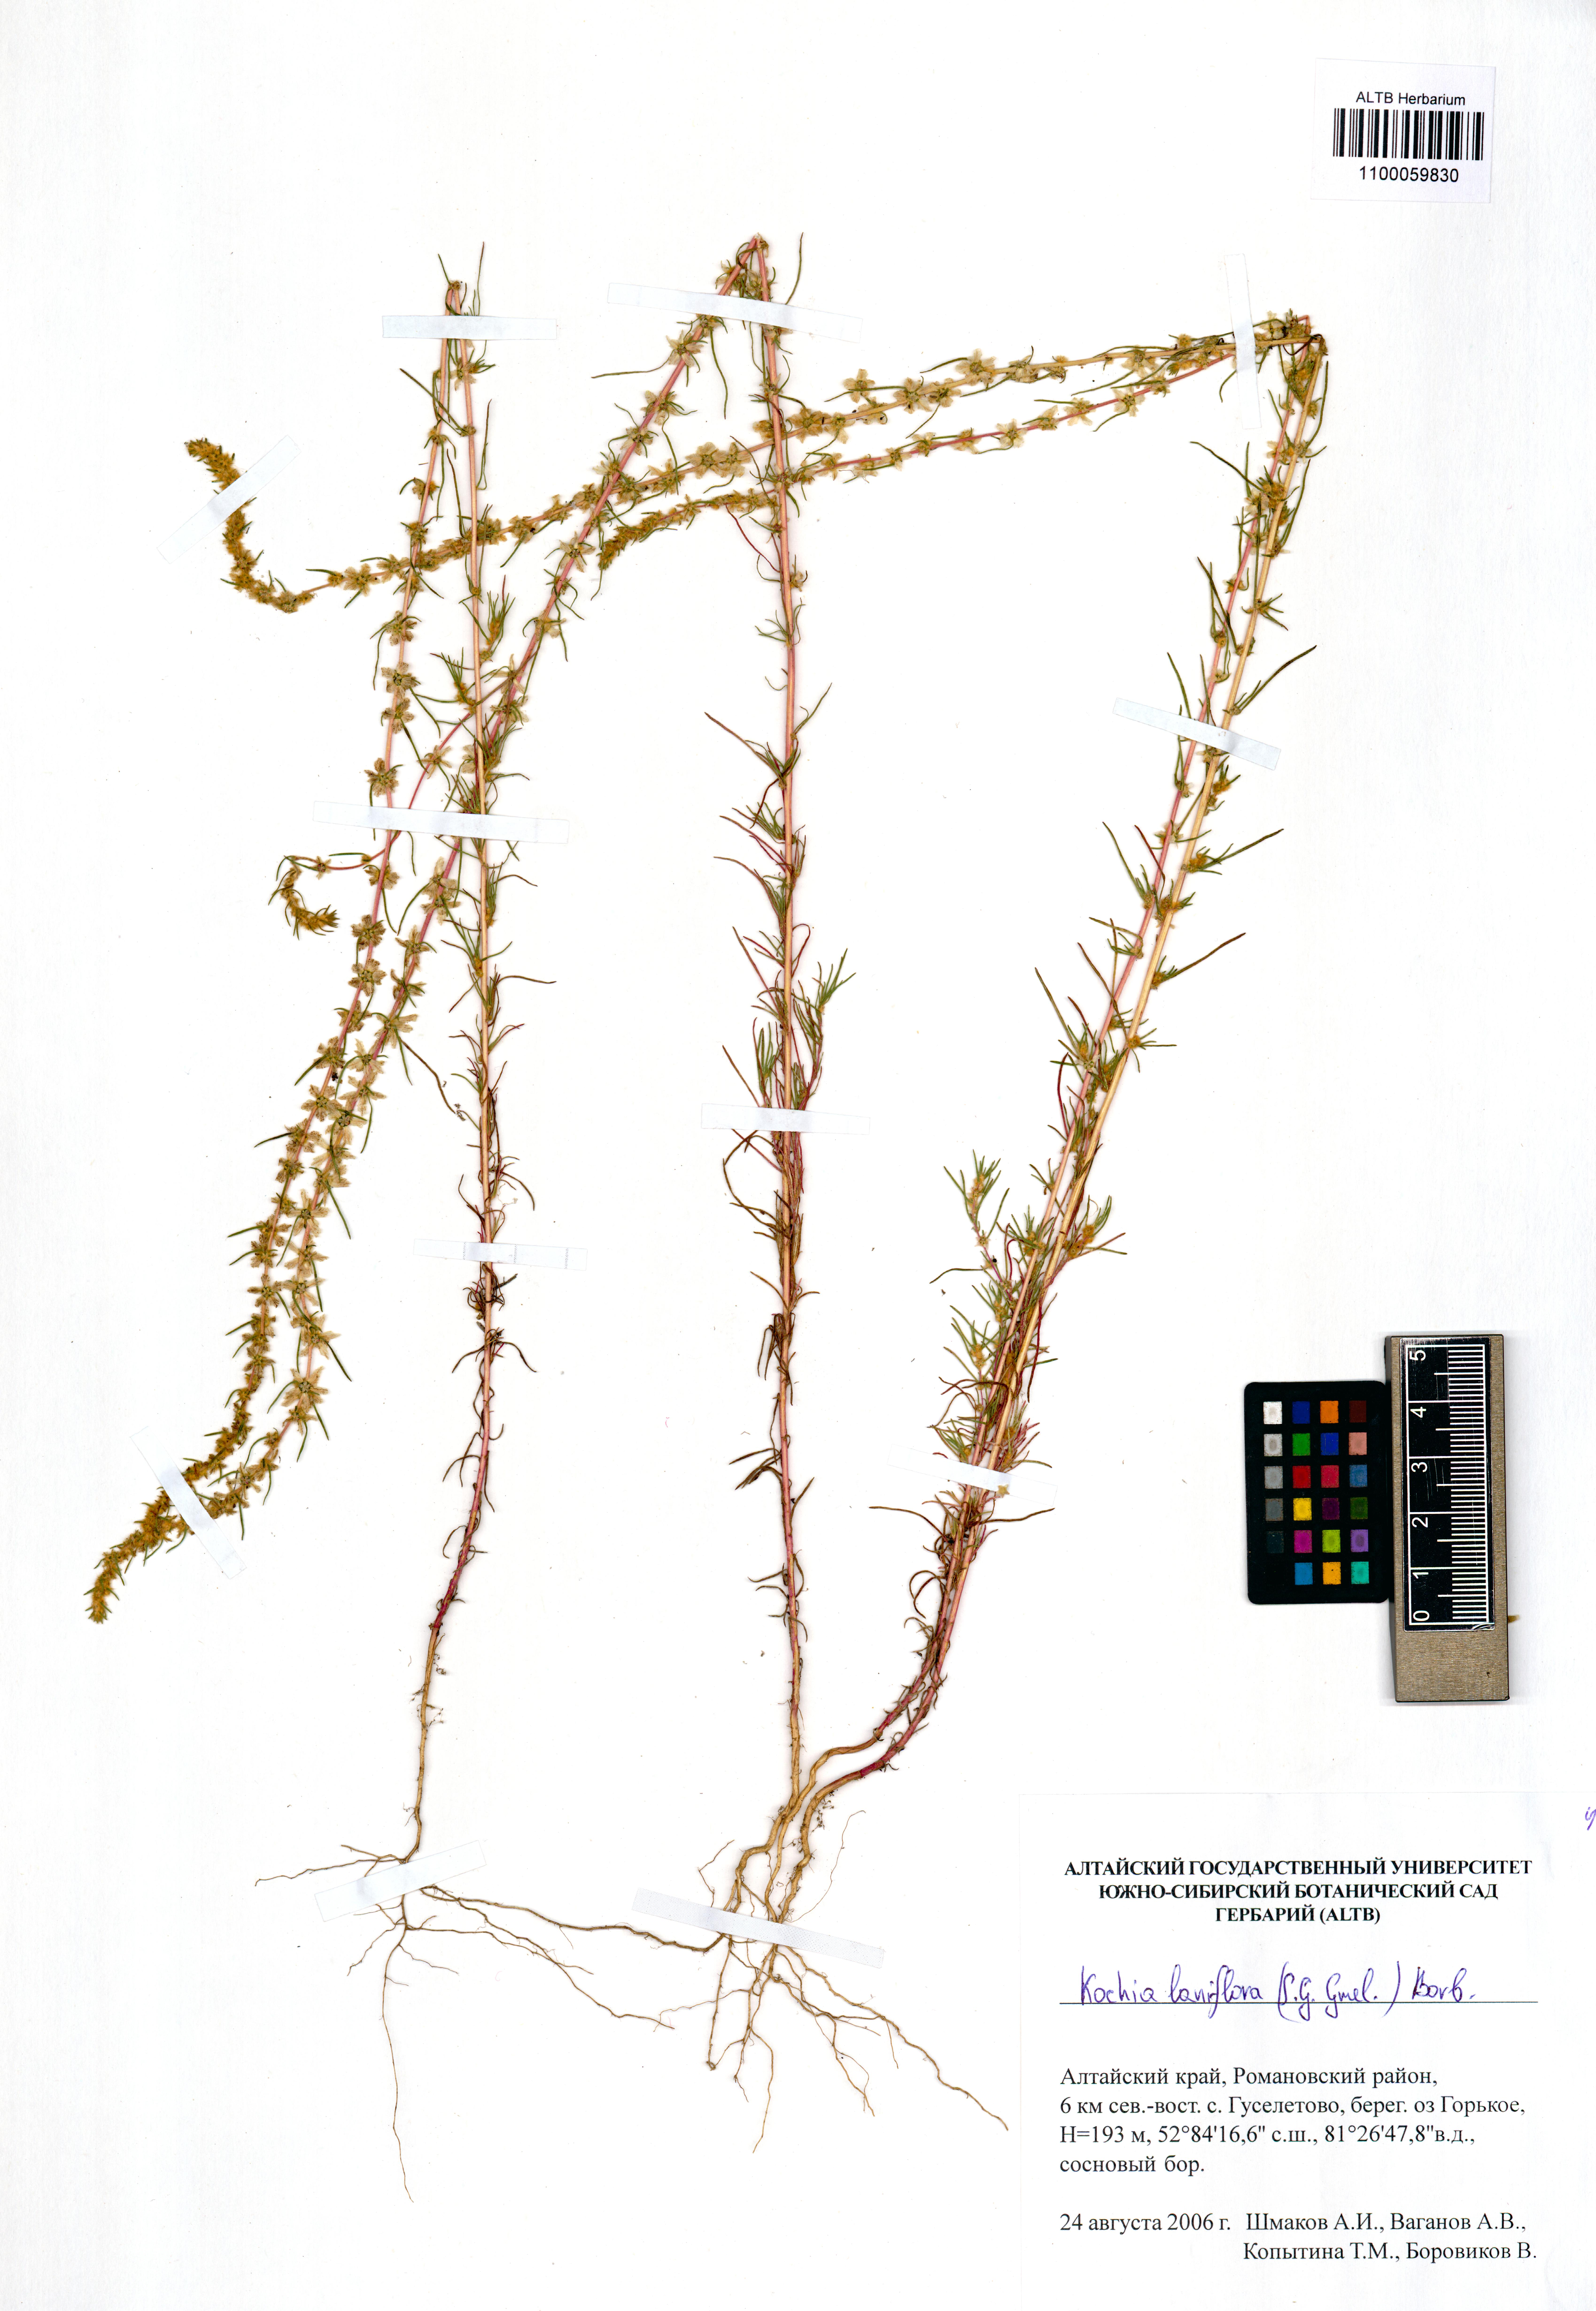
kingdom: Plantae
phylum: Tracheophyta
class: Magnoliopsida
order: Caryophyllales
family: Amaranthaceae
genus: Bassia
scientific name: Bassia laniflora
